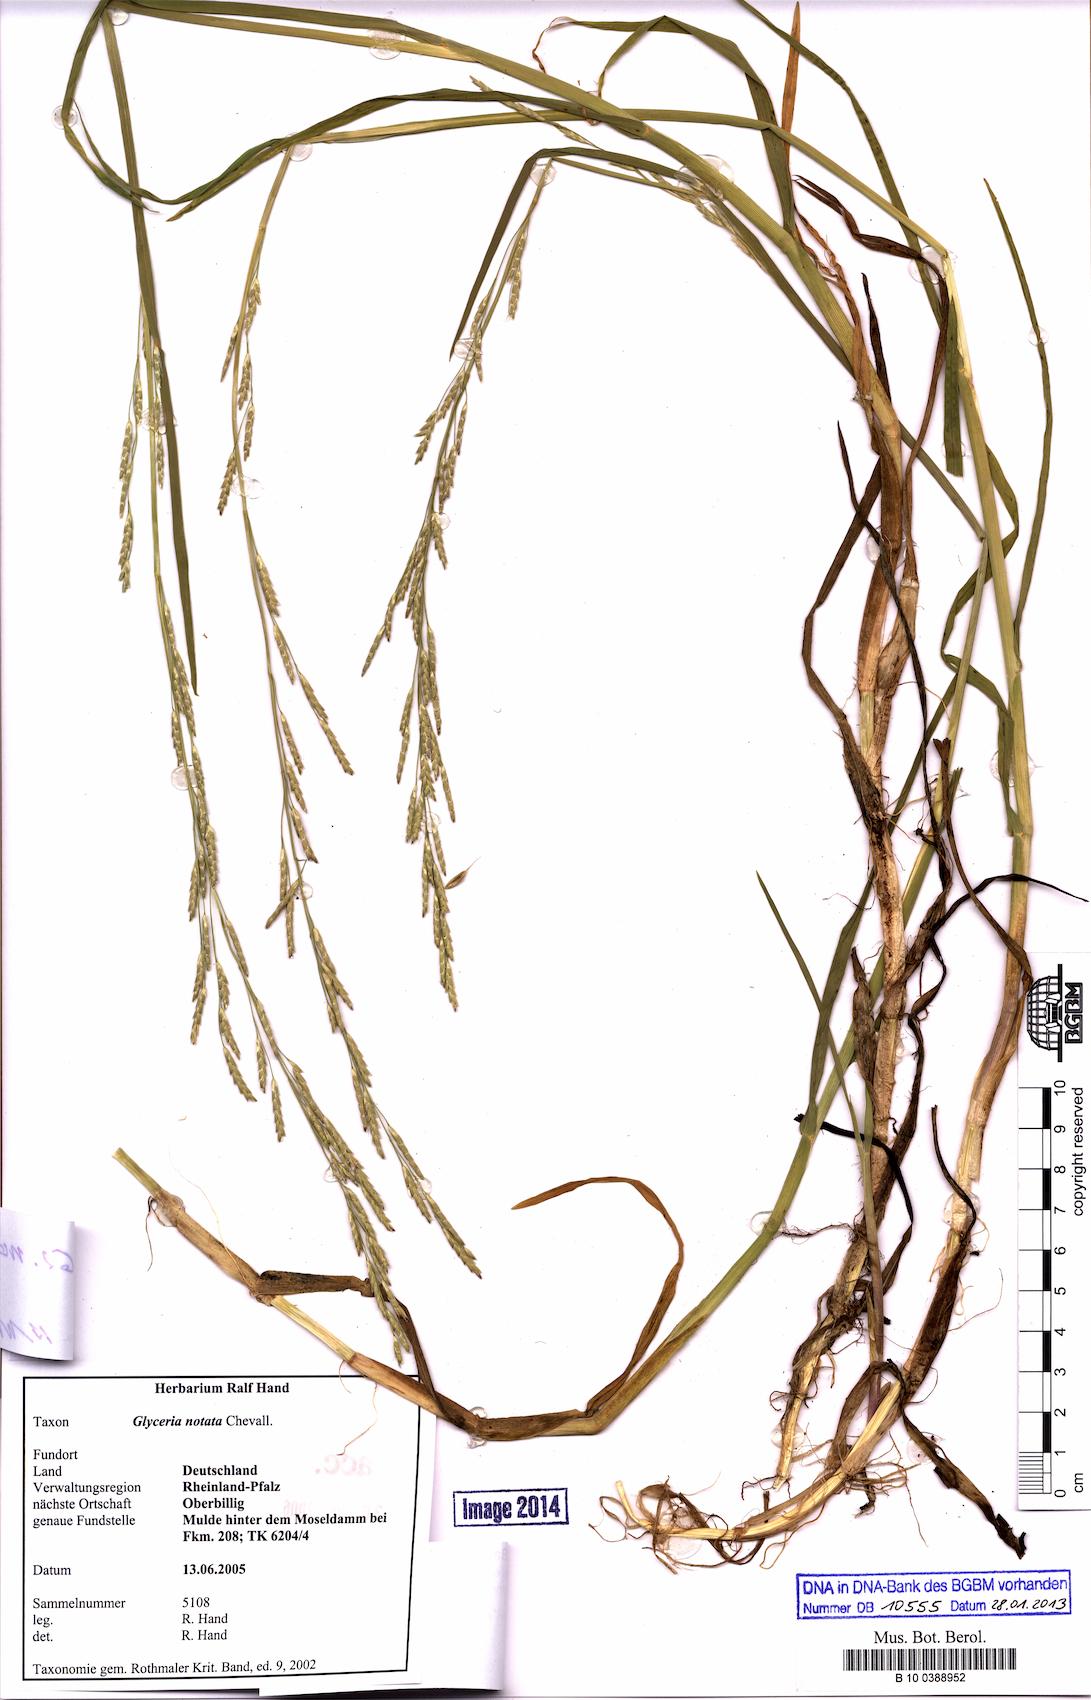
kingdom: Plantae
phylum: Tracheophyta
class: Liliopsida
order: Poales
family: Poaceae
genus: Glyceria
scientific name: Glyceria notata
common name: Plicate sweet-grass
